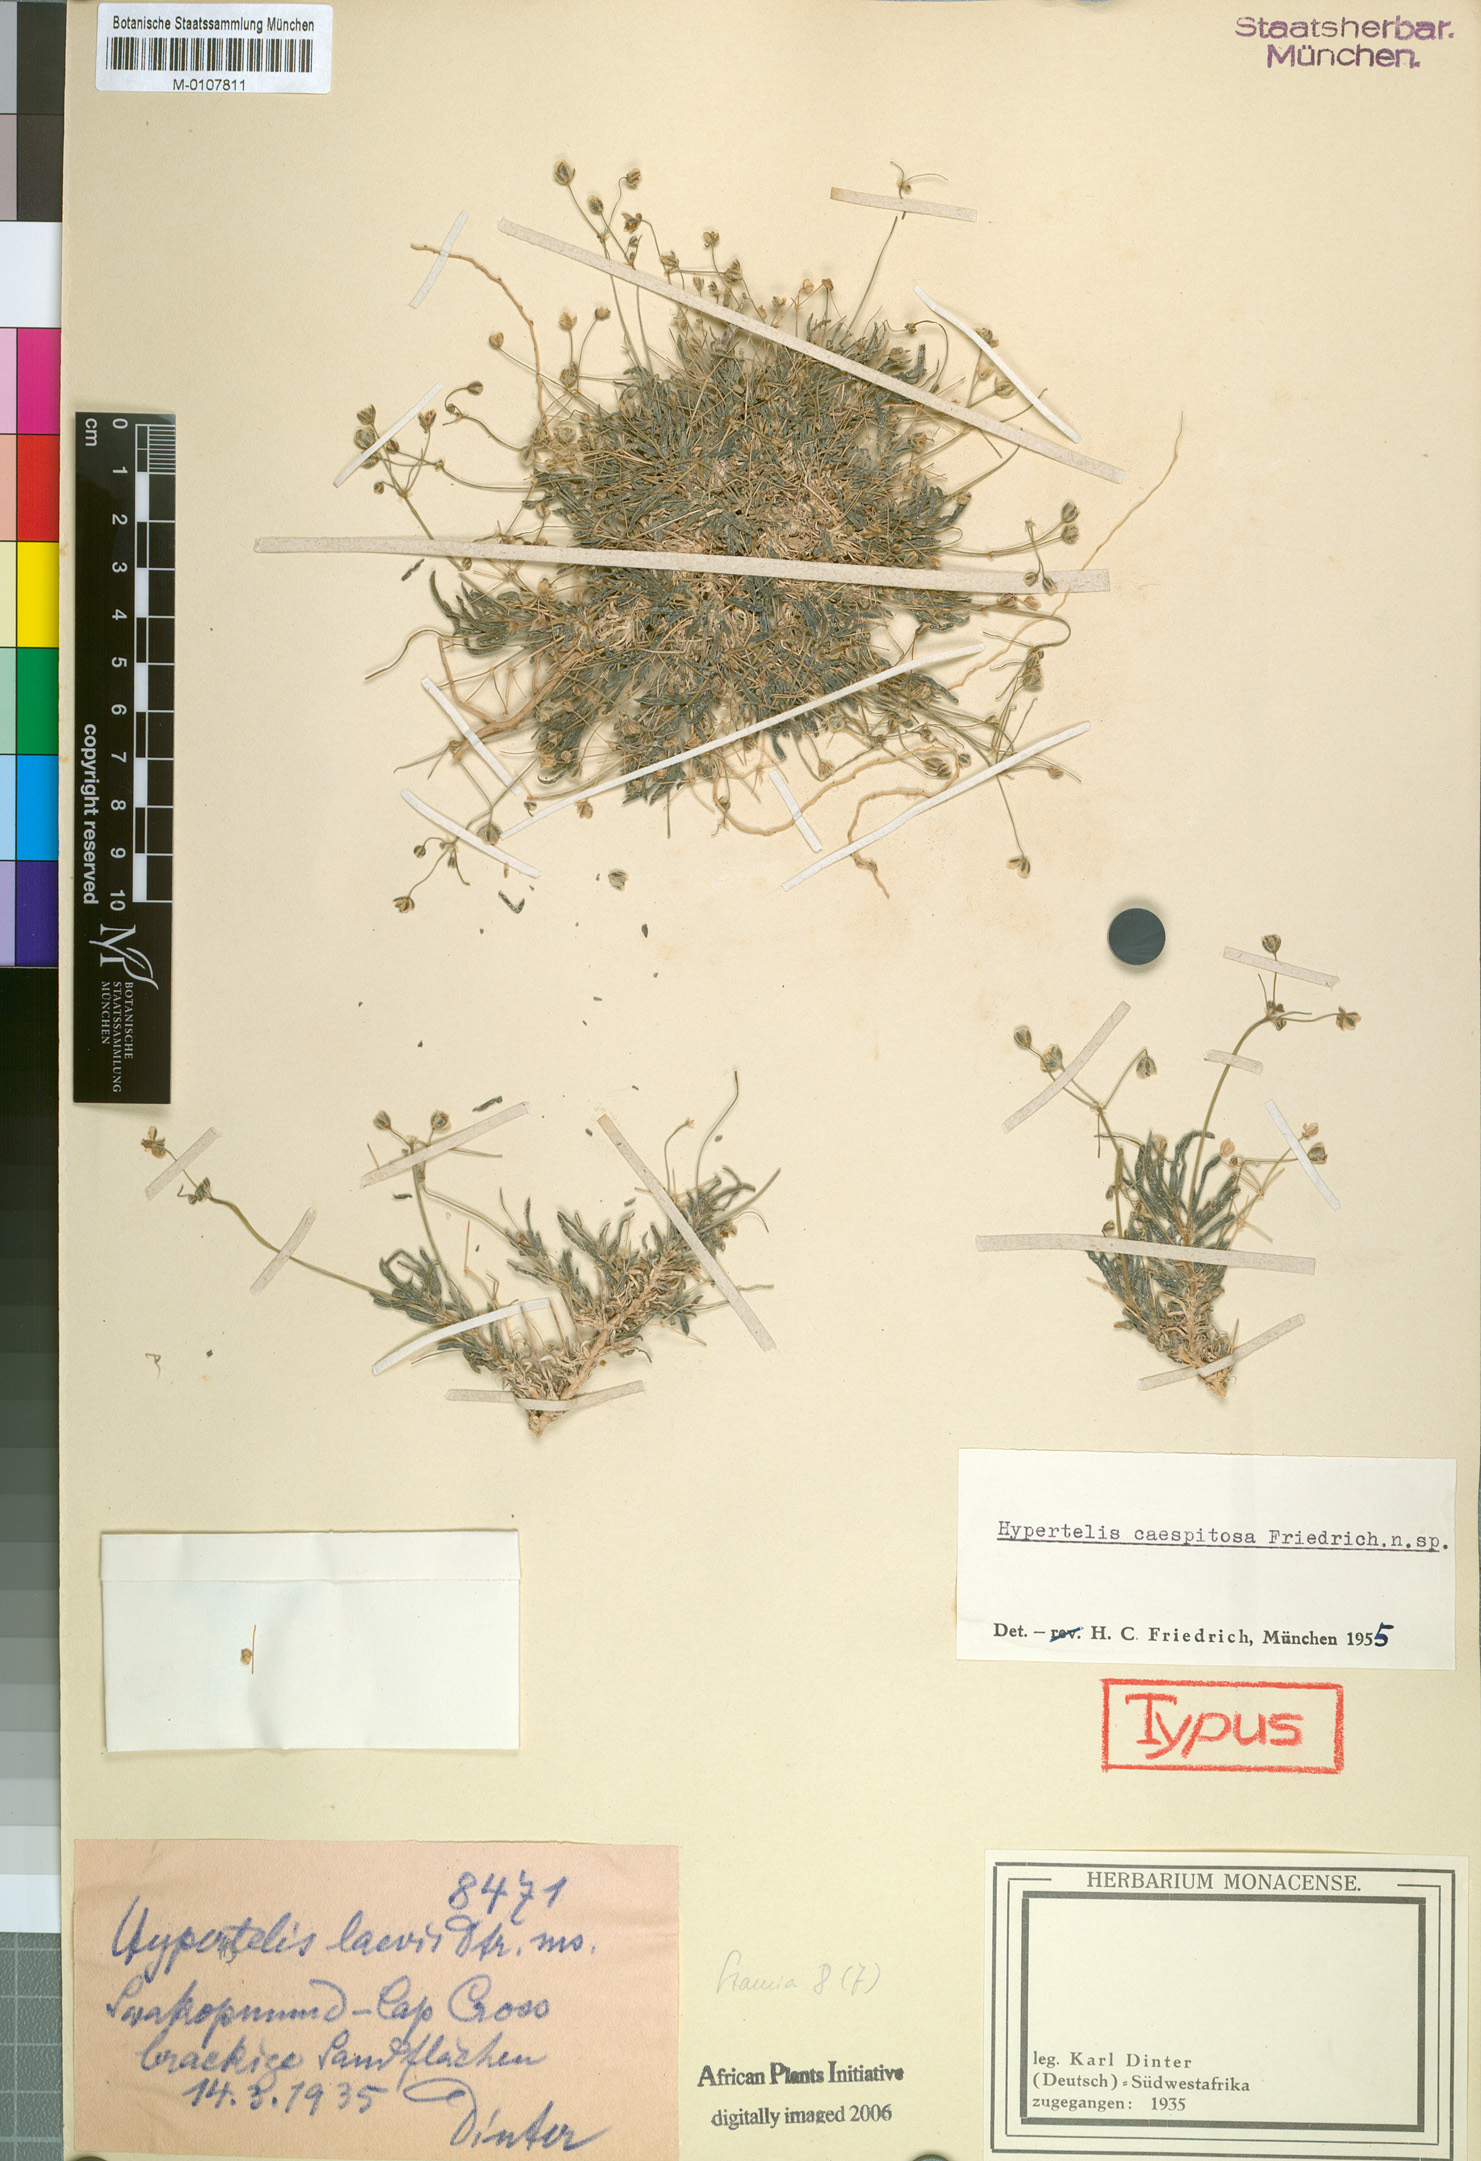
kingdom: Plantae
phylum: Tracheophyta
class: Magnoliopsida
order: Caryophyllales
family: Kewaceae
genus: Kewa
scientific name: Kewa caespitosa
